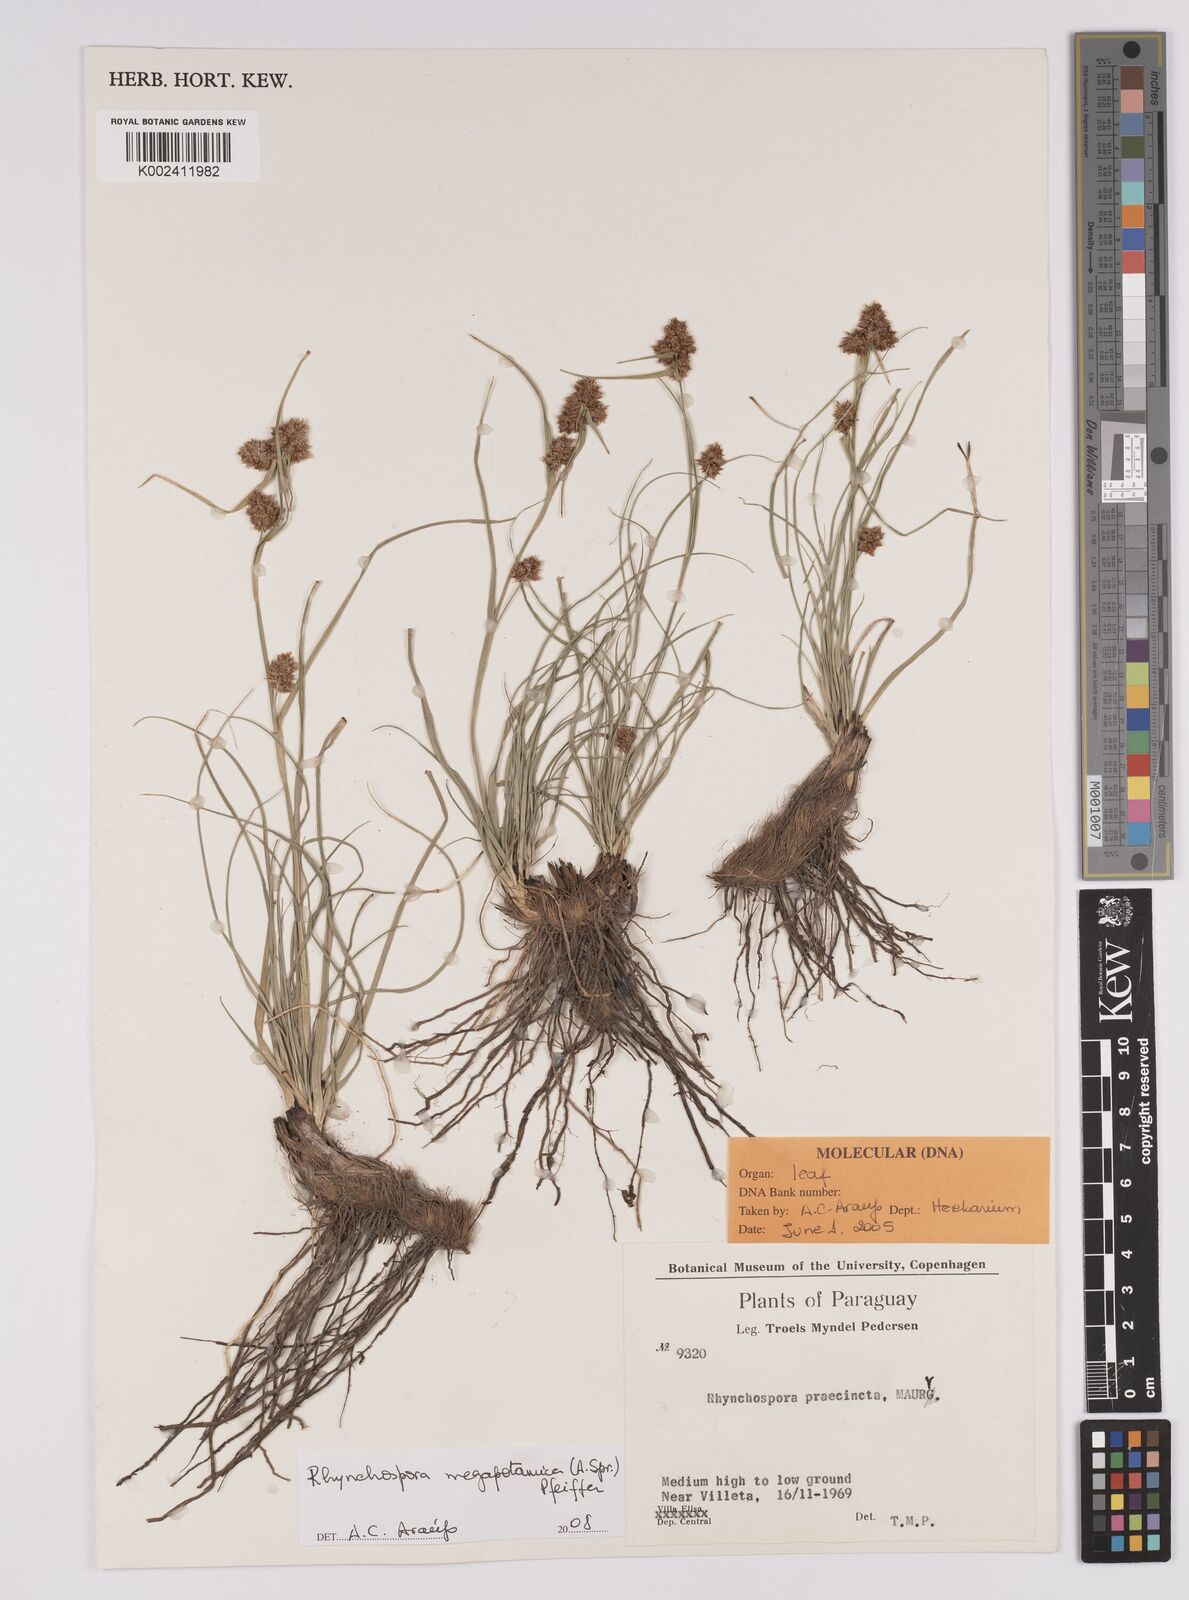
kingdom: Plantae
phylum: Tracheophyta
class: Liliopsida
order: Poales
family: Cyperaceae
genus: Rhynchospora
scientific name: Rhynchospora megalocarpa
